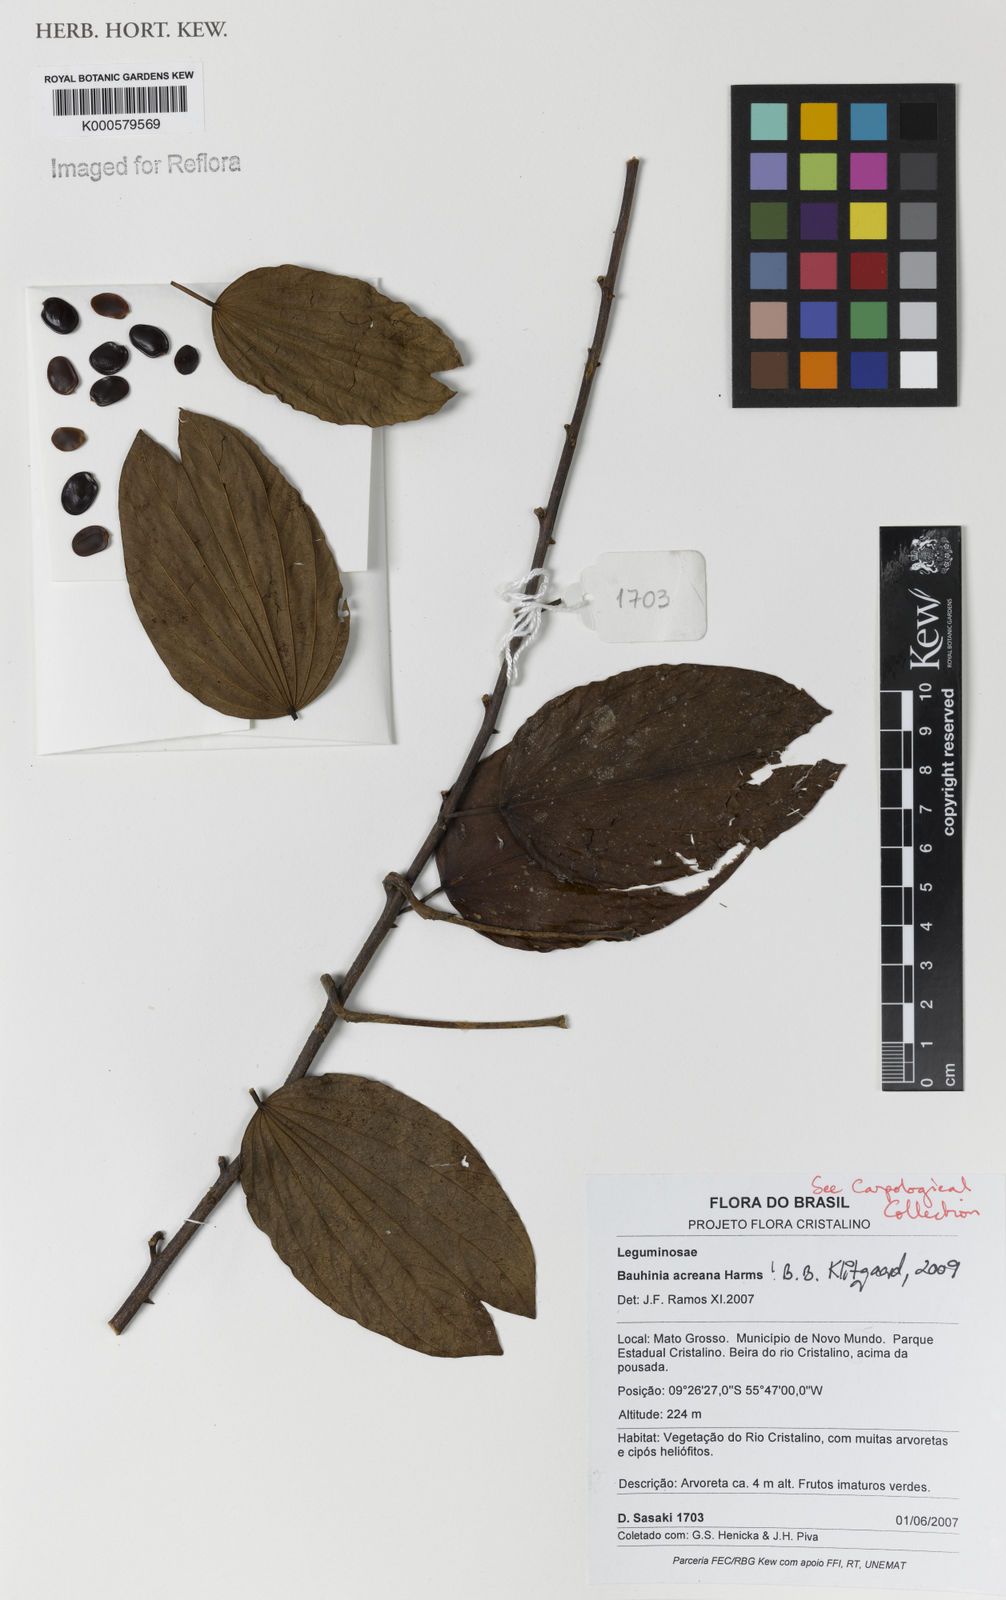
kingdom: Plantae
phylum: Tracheophyta
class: Magnoliopsida
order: Fabales
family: Fabaceae
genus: Bauhinia
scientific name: Bauhinia acreana
